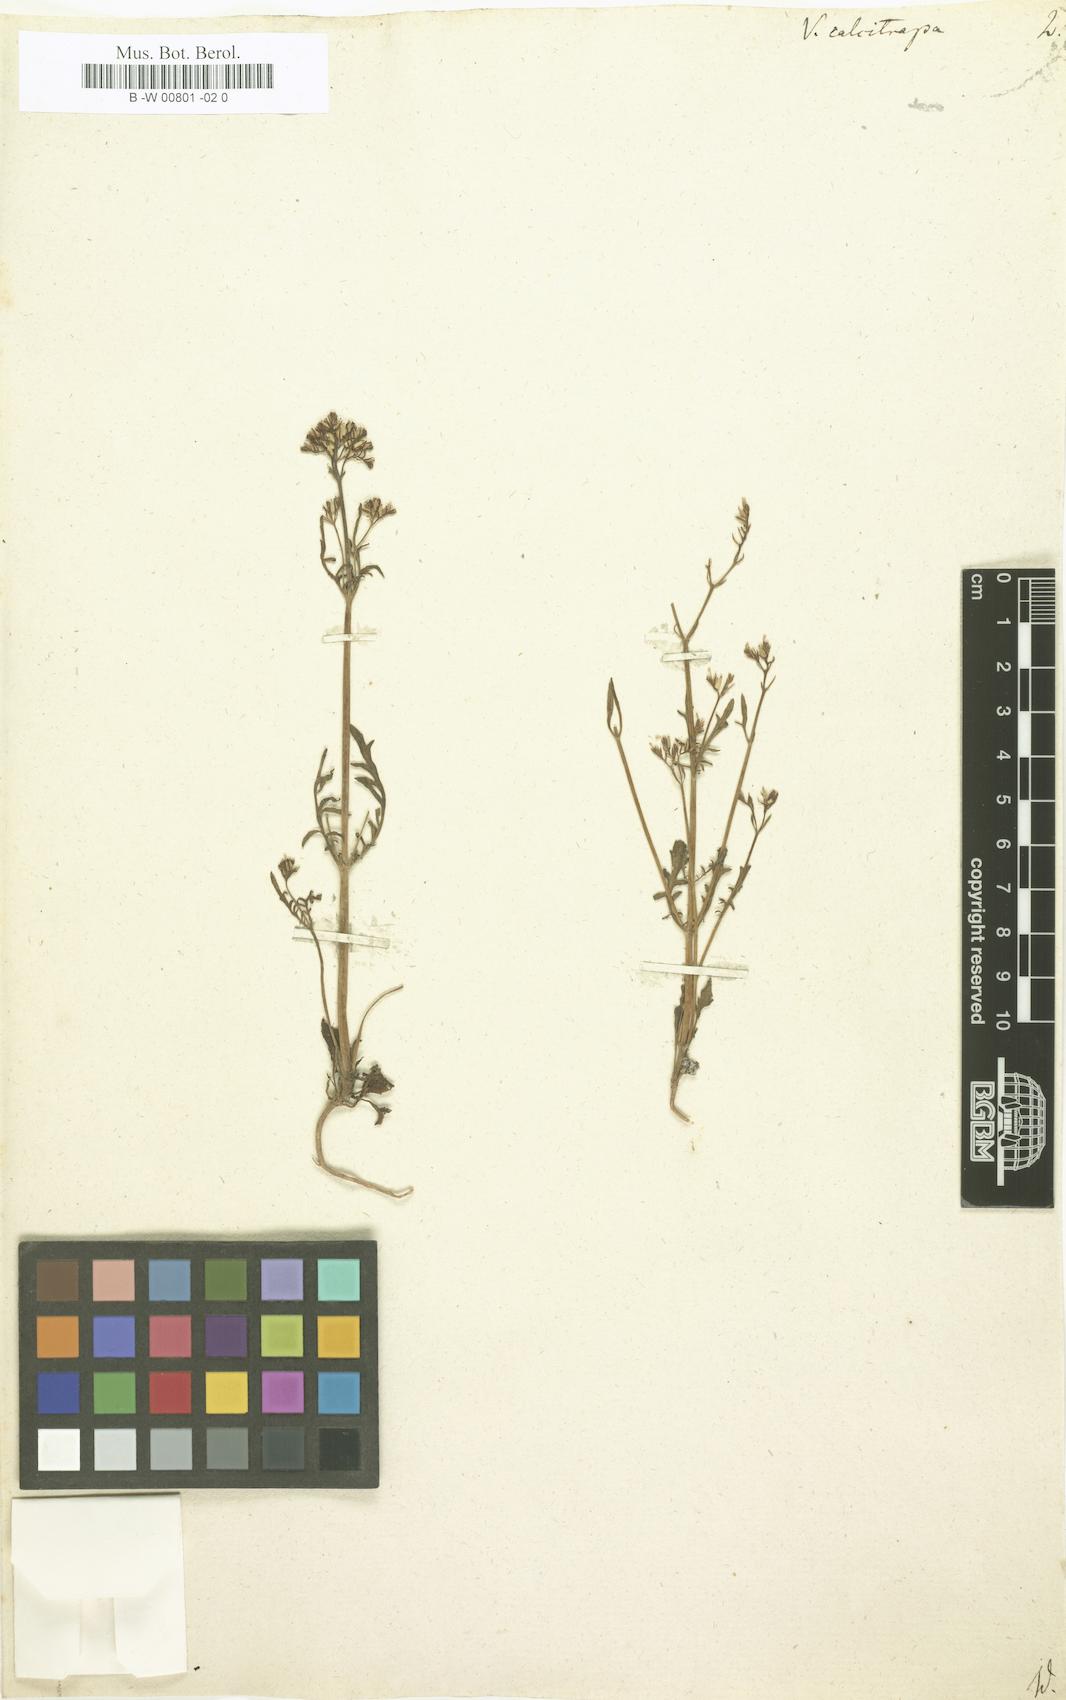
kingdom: Plantae
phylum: Tracheophyta
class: Magnoliopsida
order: Dipsacales
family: Caprifoliaceae
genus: Centranthus
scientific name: Centranthus calcitrapae
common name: Annual valerian
